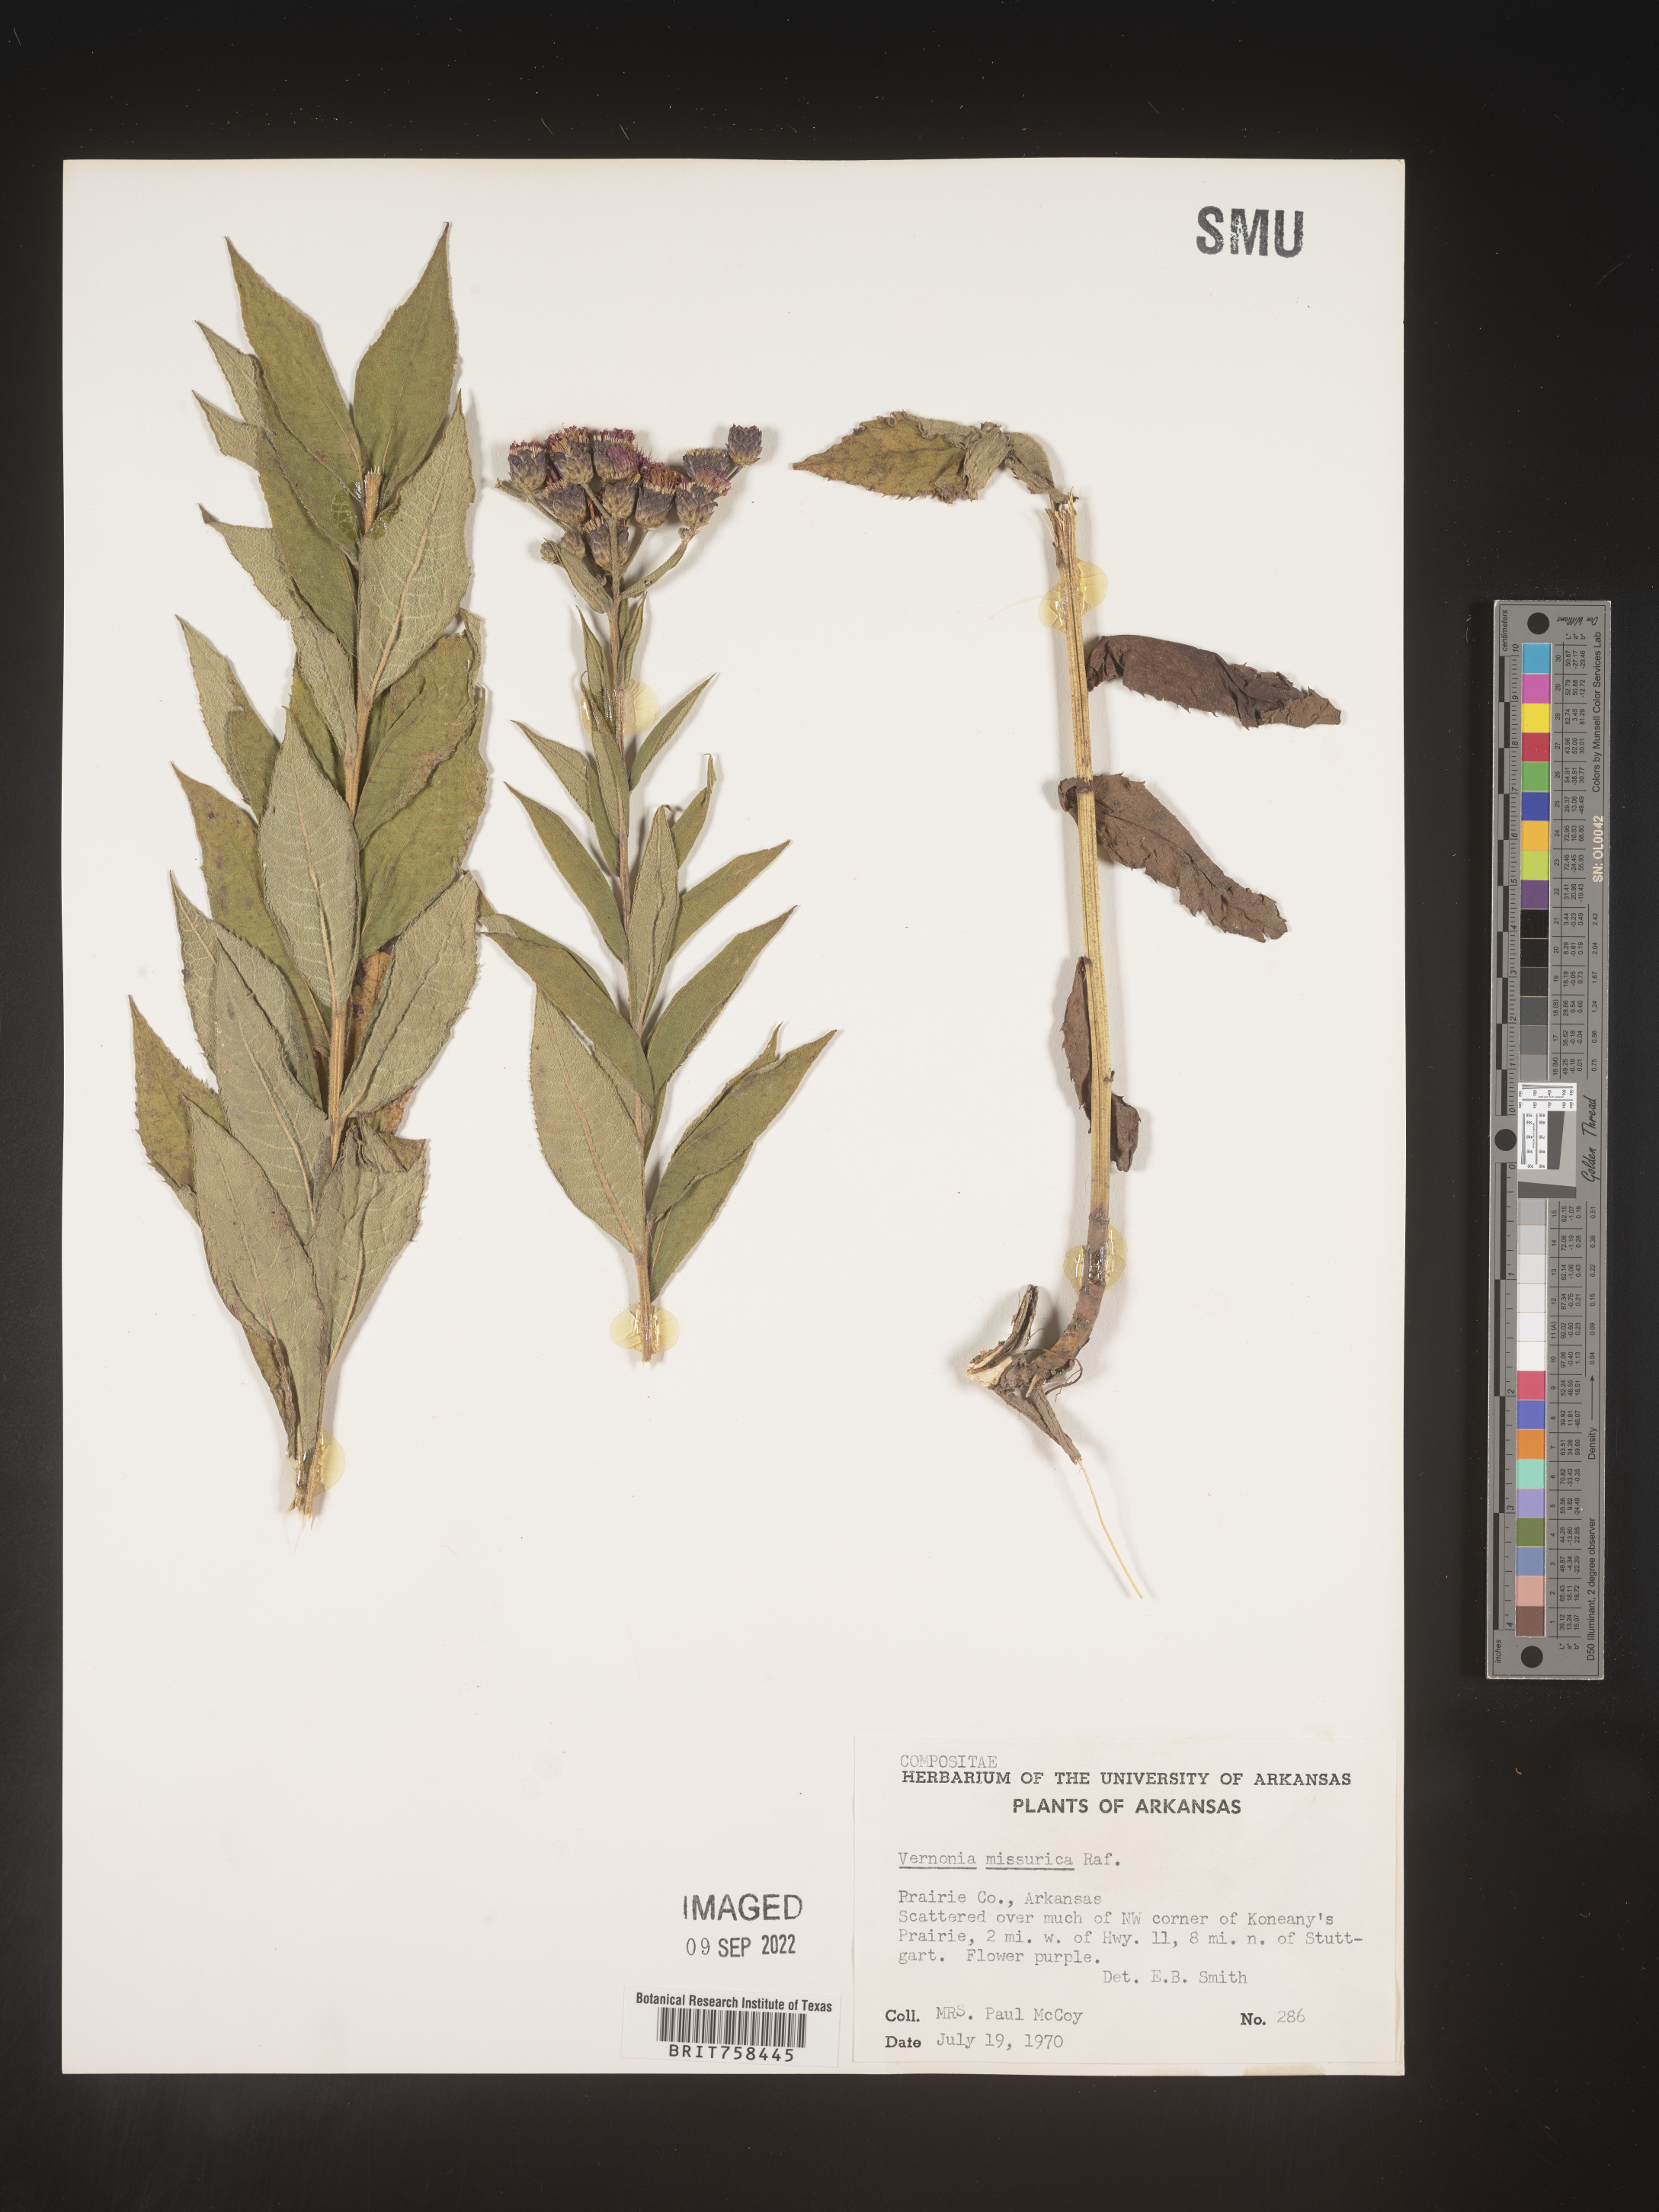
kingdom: Plantae
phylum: Tracheophyta
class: Magnoliopsida
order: Asterales
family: Asteraceae
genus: Vernonia
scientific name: Vernonia missurica
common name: Missouri ironweed
